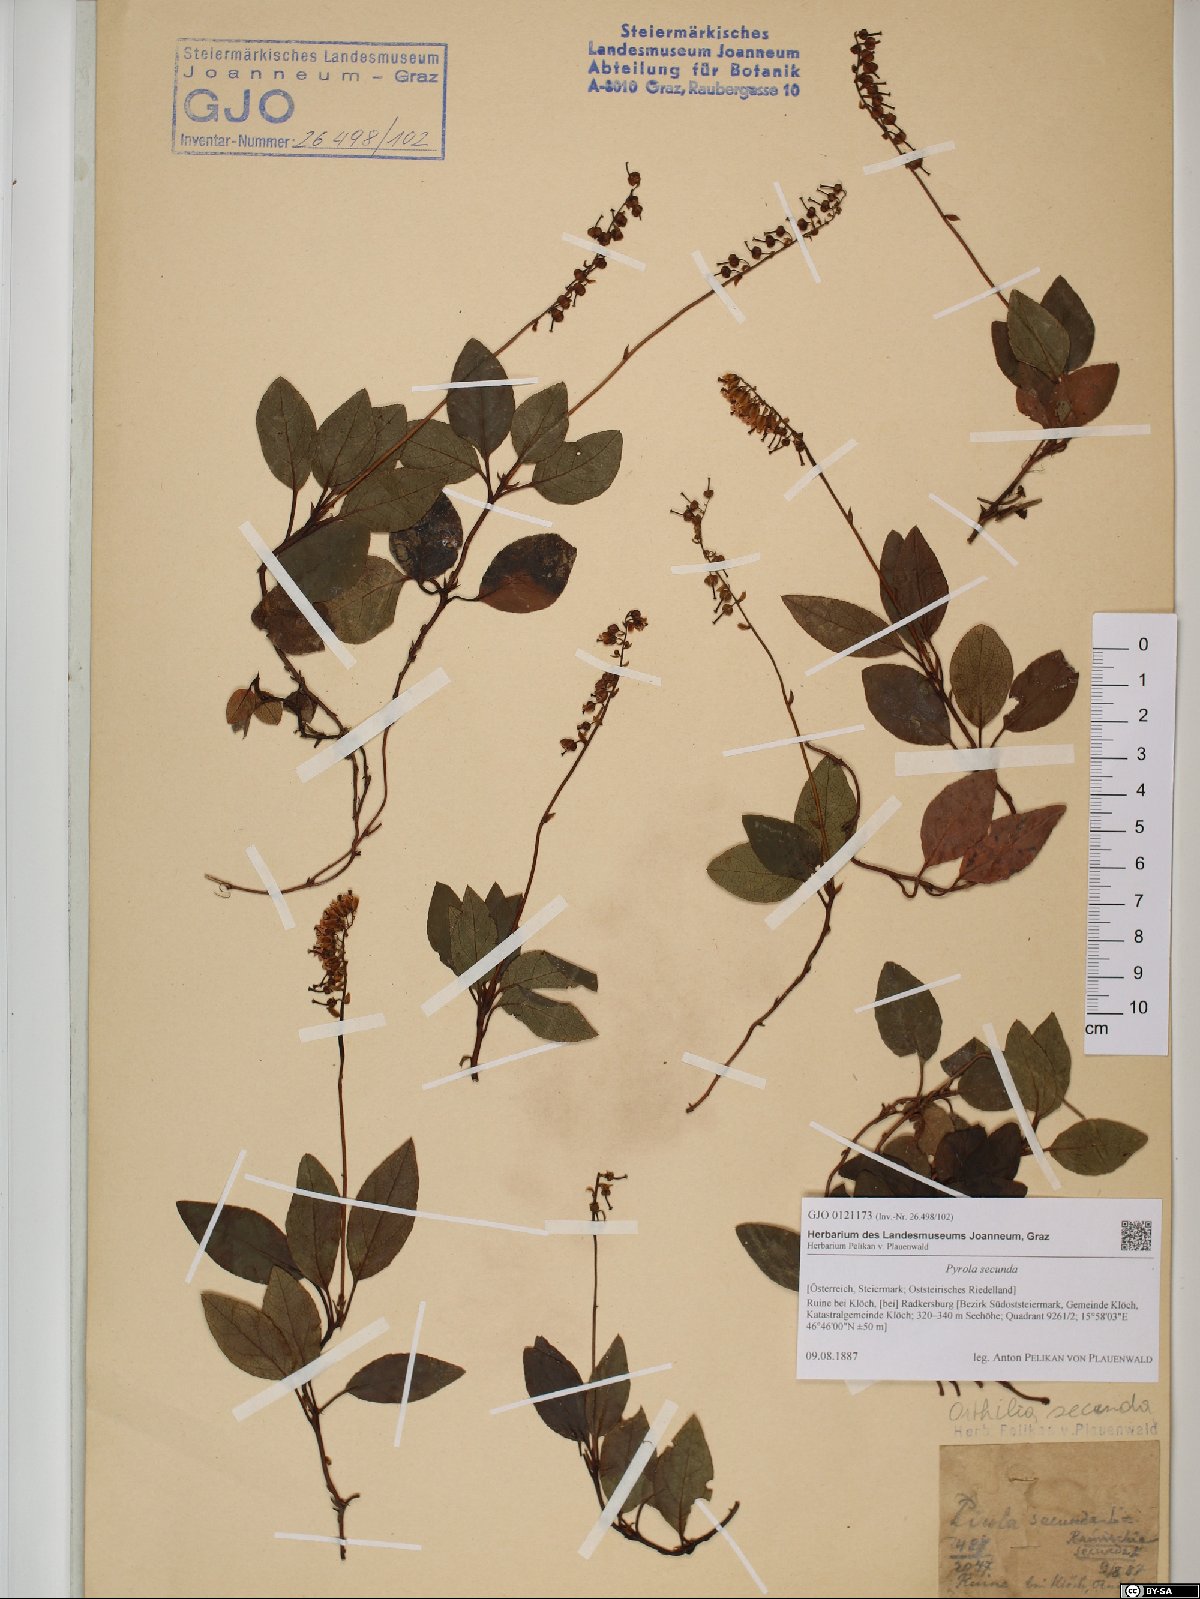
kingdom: Plantae
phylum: Tracheophyta
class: Magnoliopsida
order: Ericales
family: Ericaceae
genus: Orthilia
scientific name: Orthilia secunda
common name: One-sided orthilia
